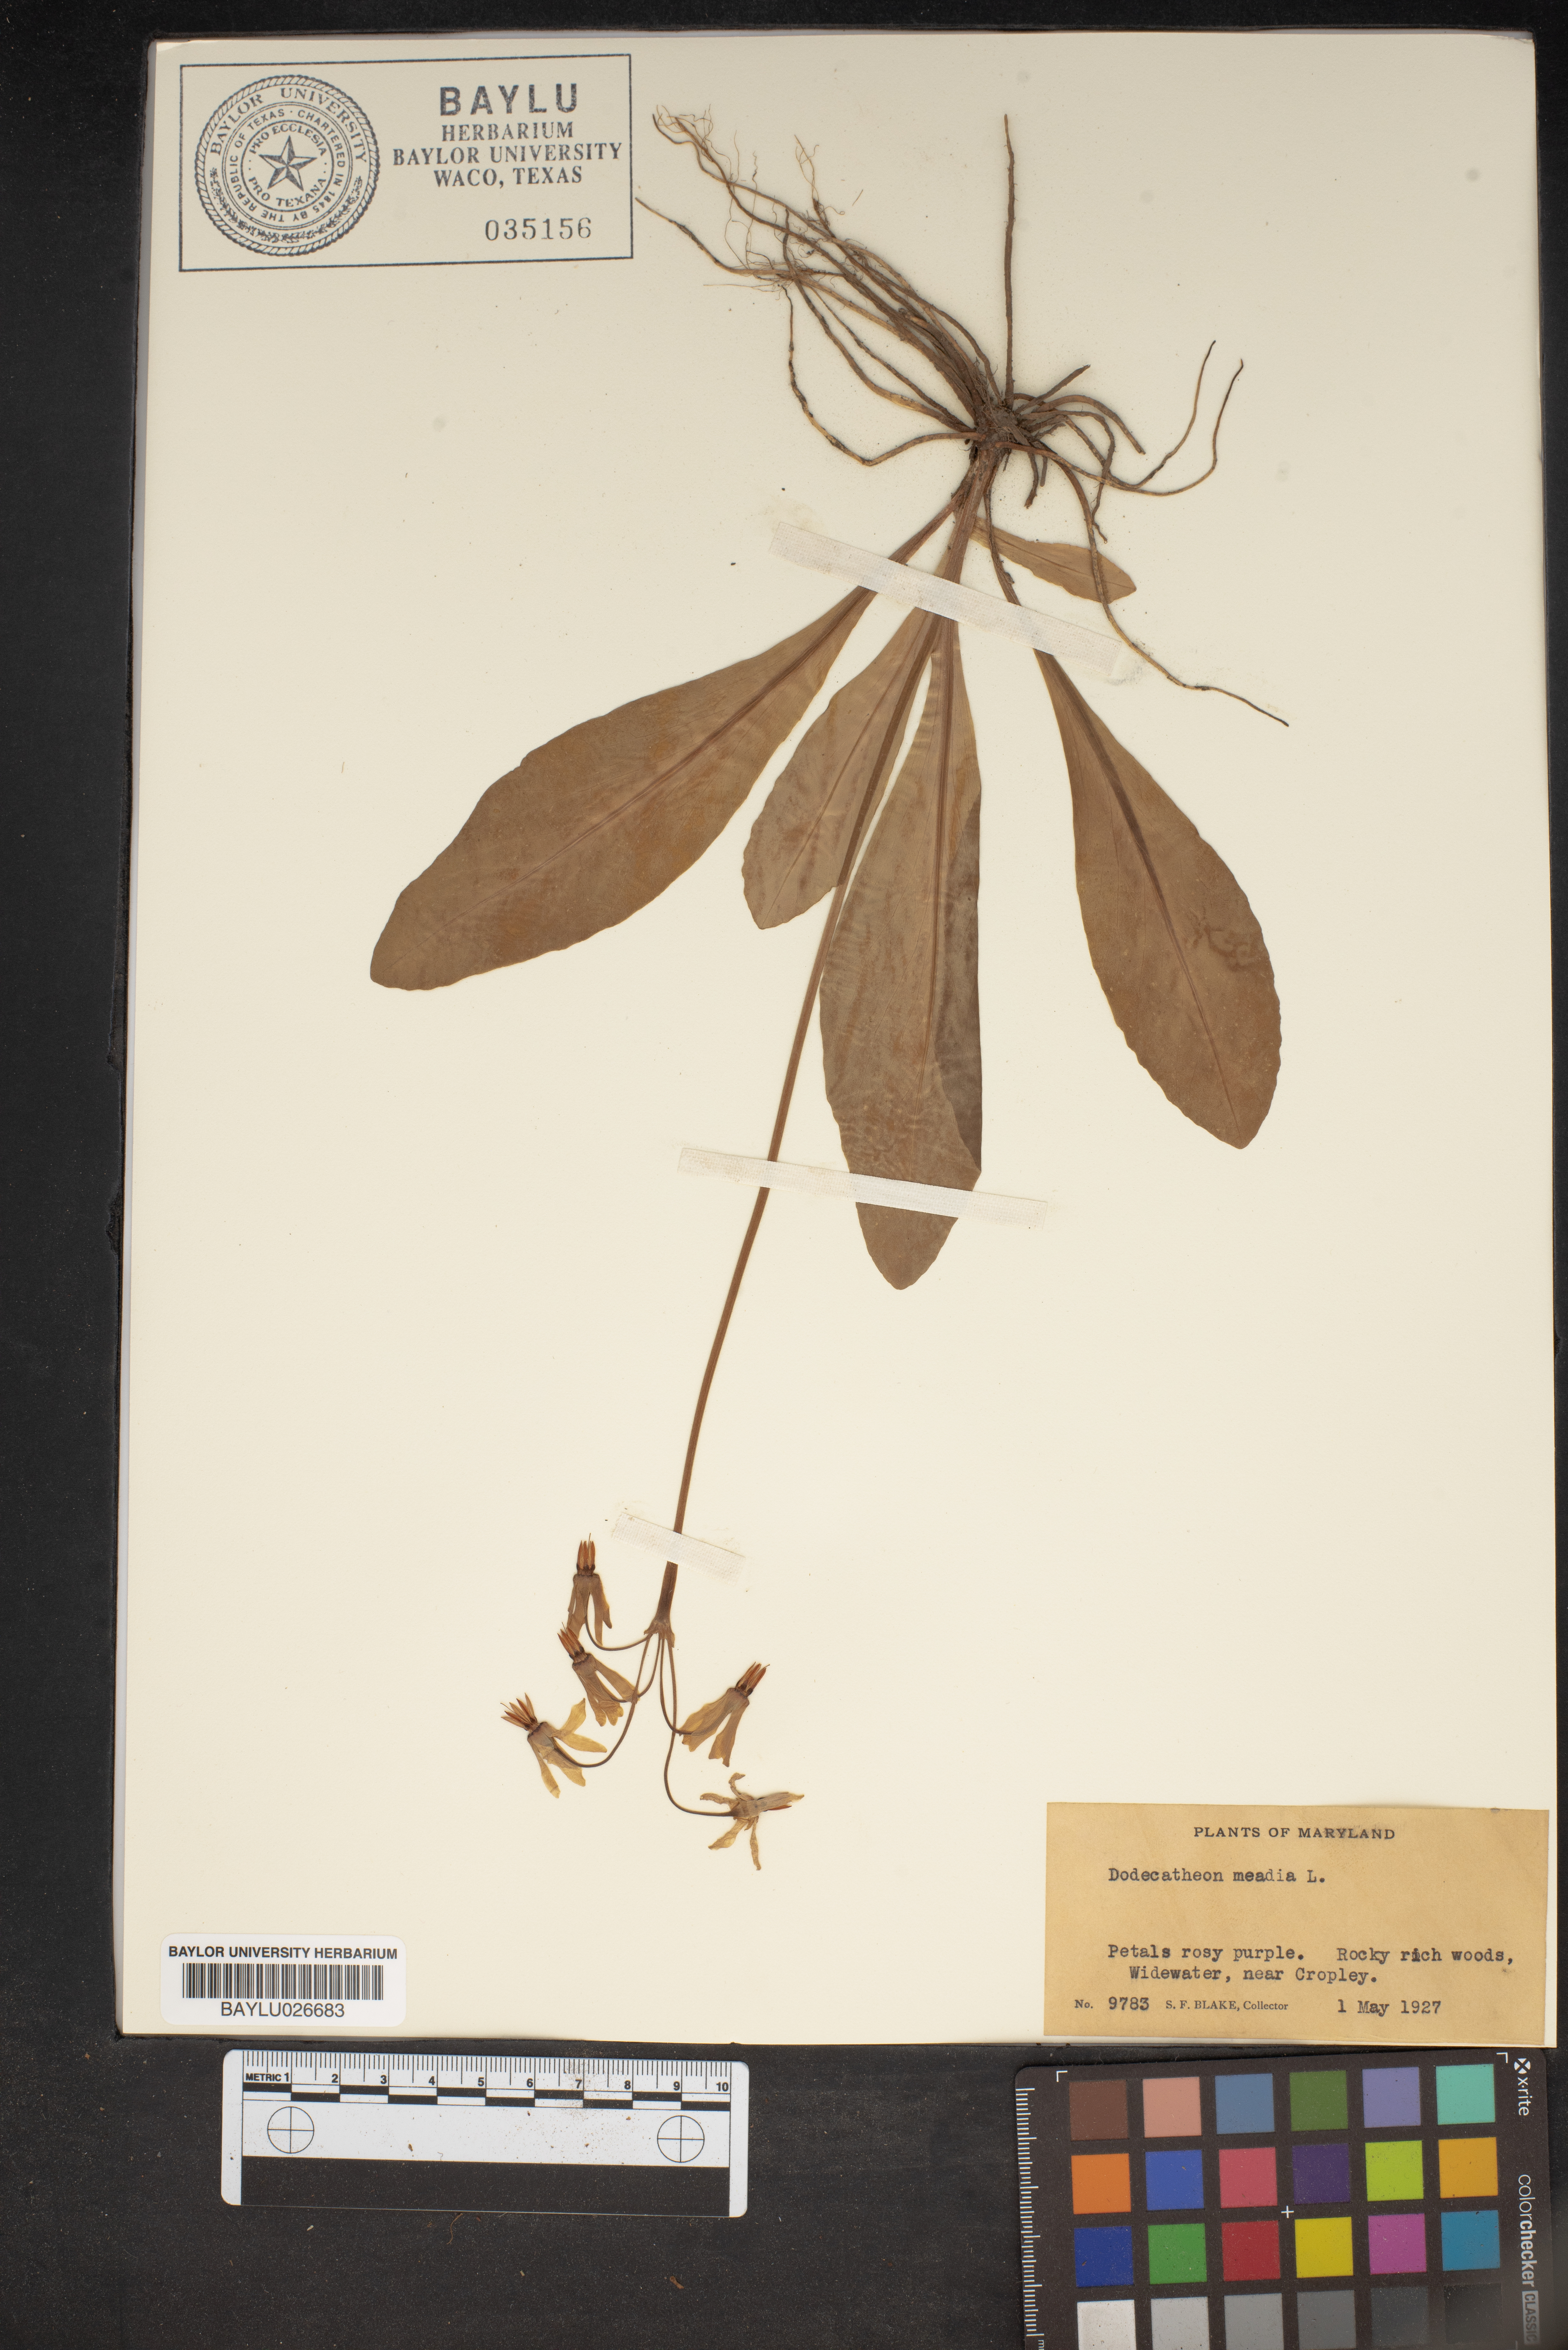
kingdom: Plantae
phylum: Tracheophyta
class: Magnoliopsida
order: Ericales
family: Primulaceae
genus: Dodecatheon
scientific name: Dodecatheon meadia
